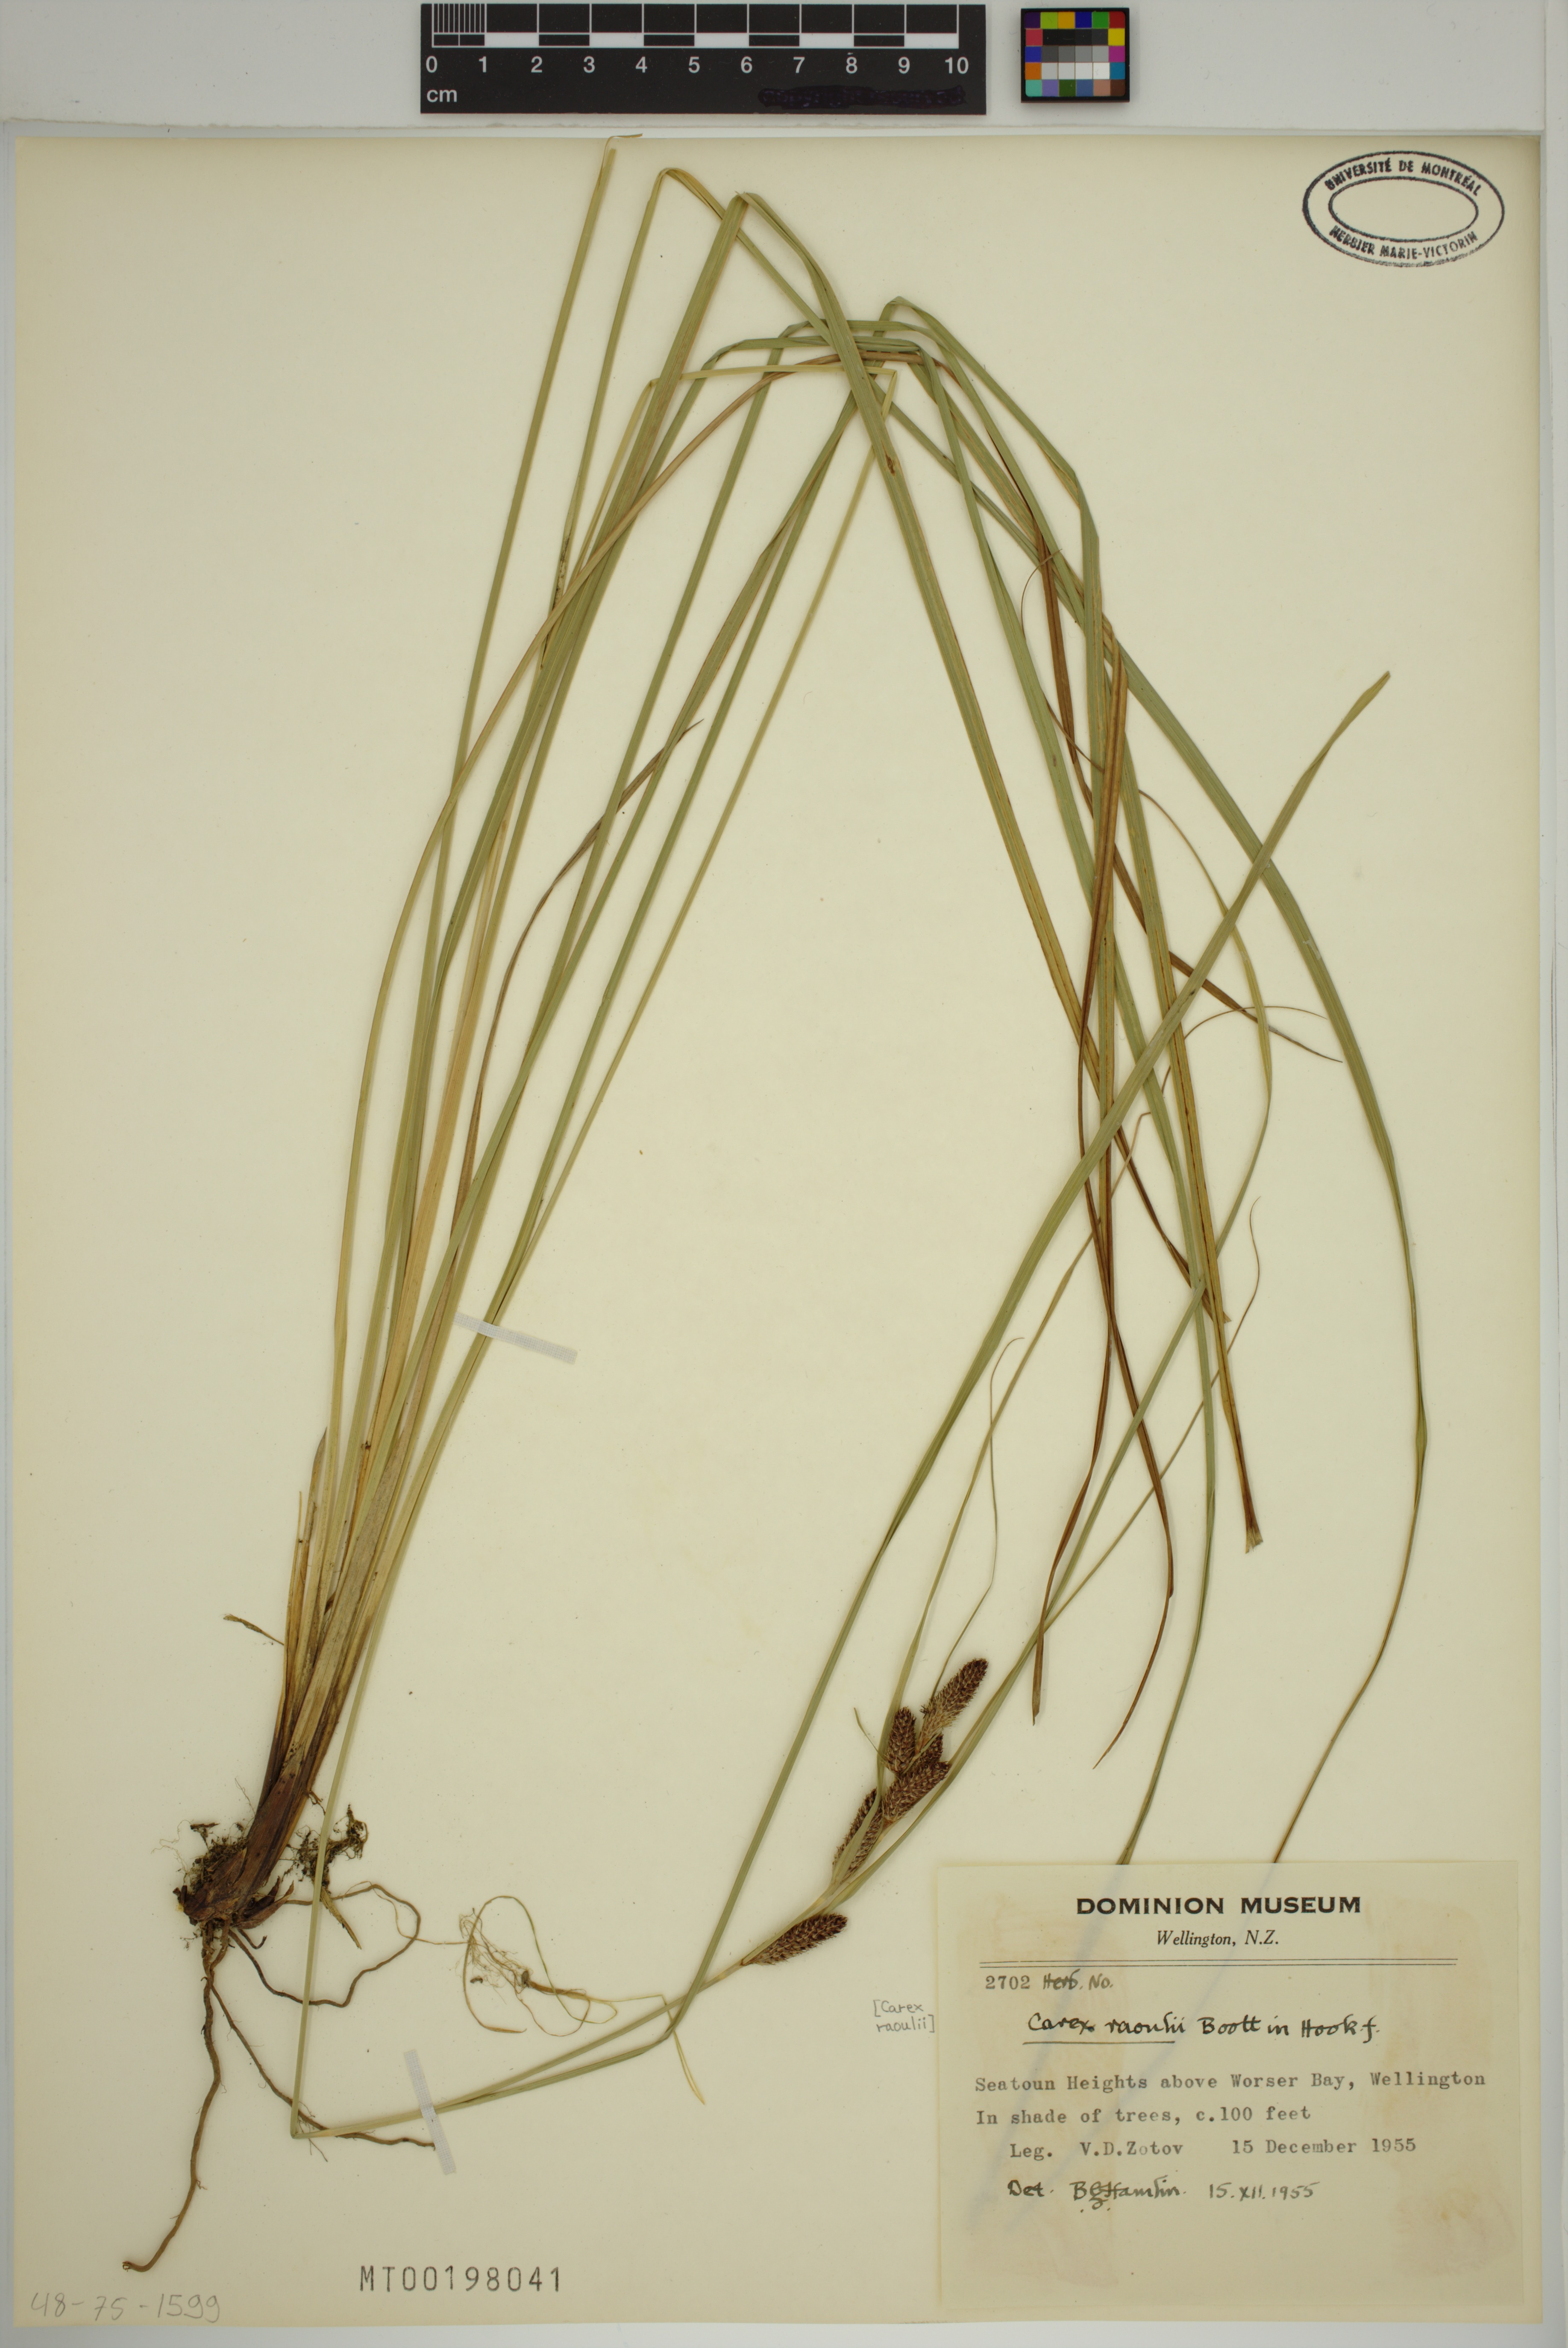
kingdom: Plantae
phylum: Tracheophyta
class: Liliopsida
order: Poales
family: Cyperaceae
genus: Carex
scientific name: Carex raoulii
